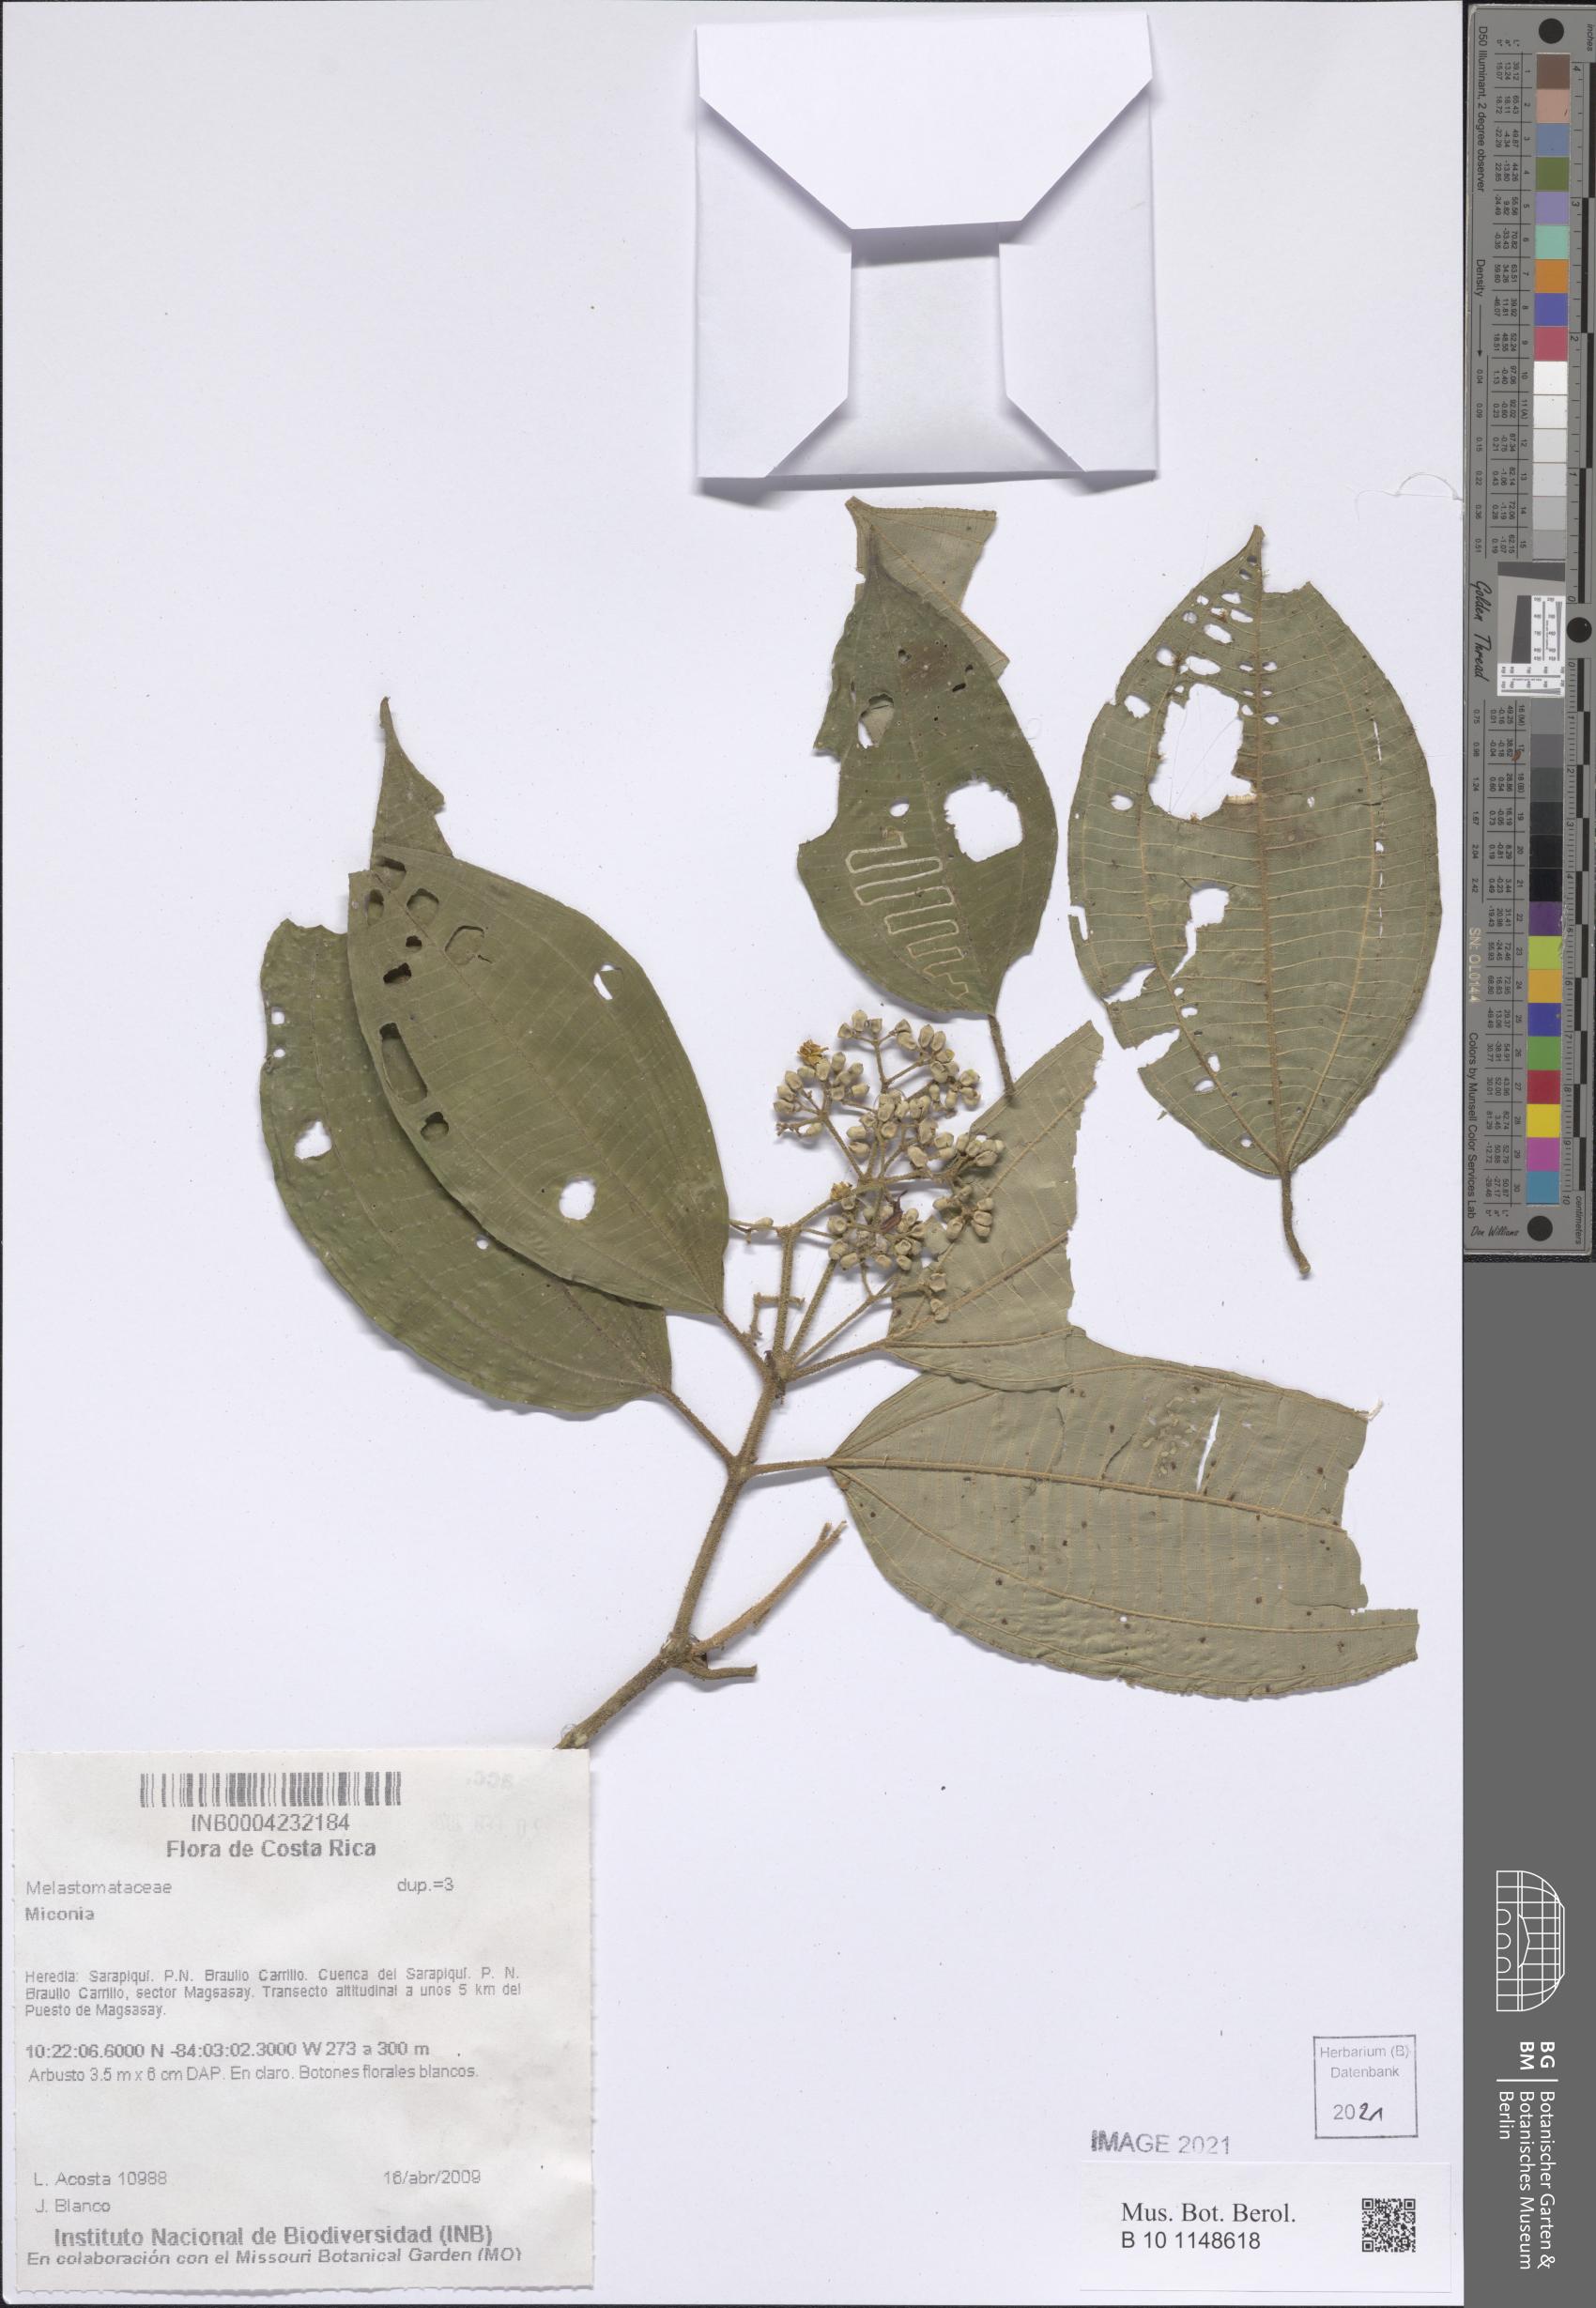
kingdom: Plantae
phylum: Tracheophyta
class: Magnoliopsida
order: Myrtales
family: Melastomataceae
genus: Miconia
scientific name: Miconia
